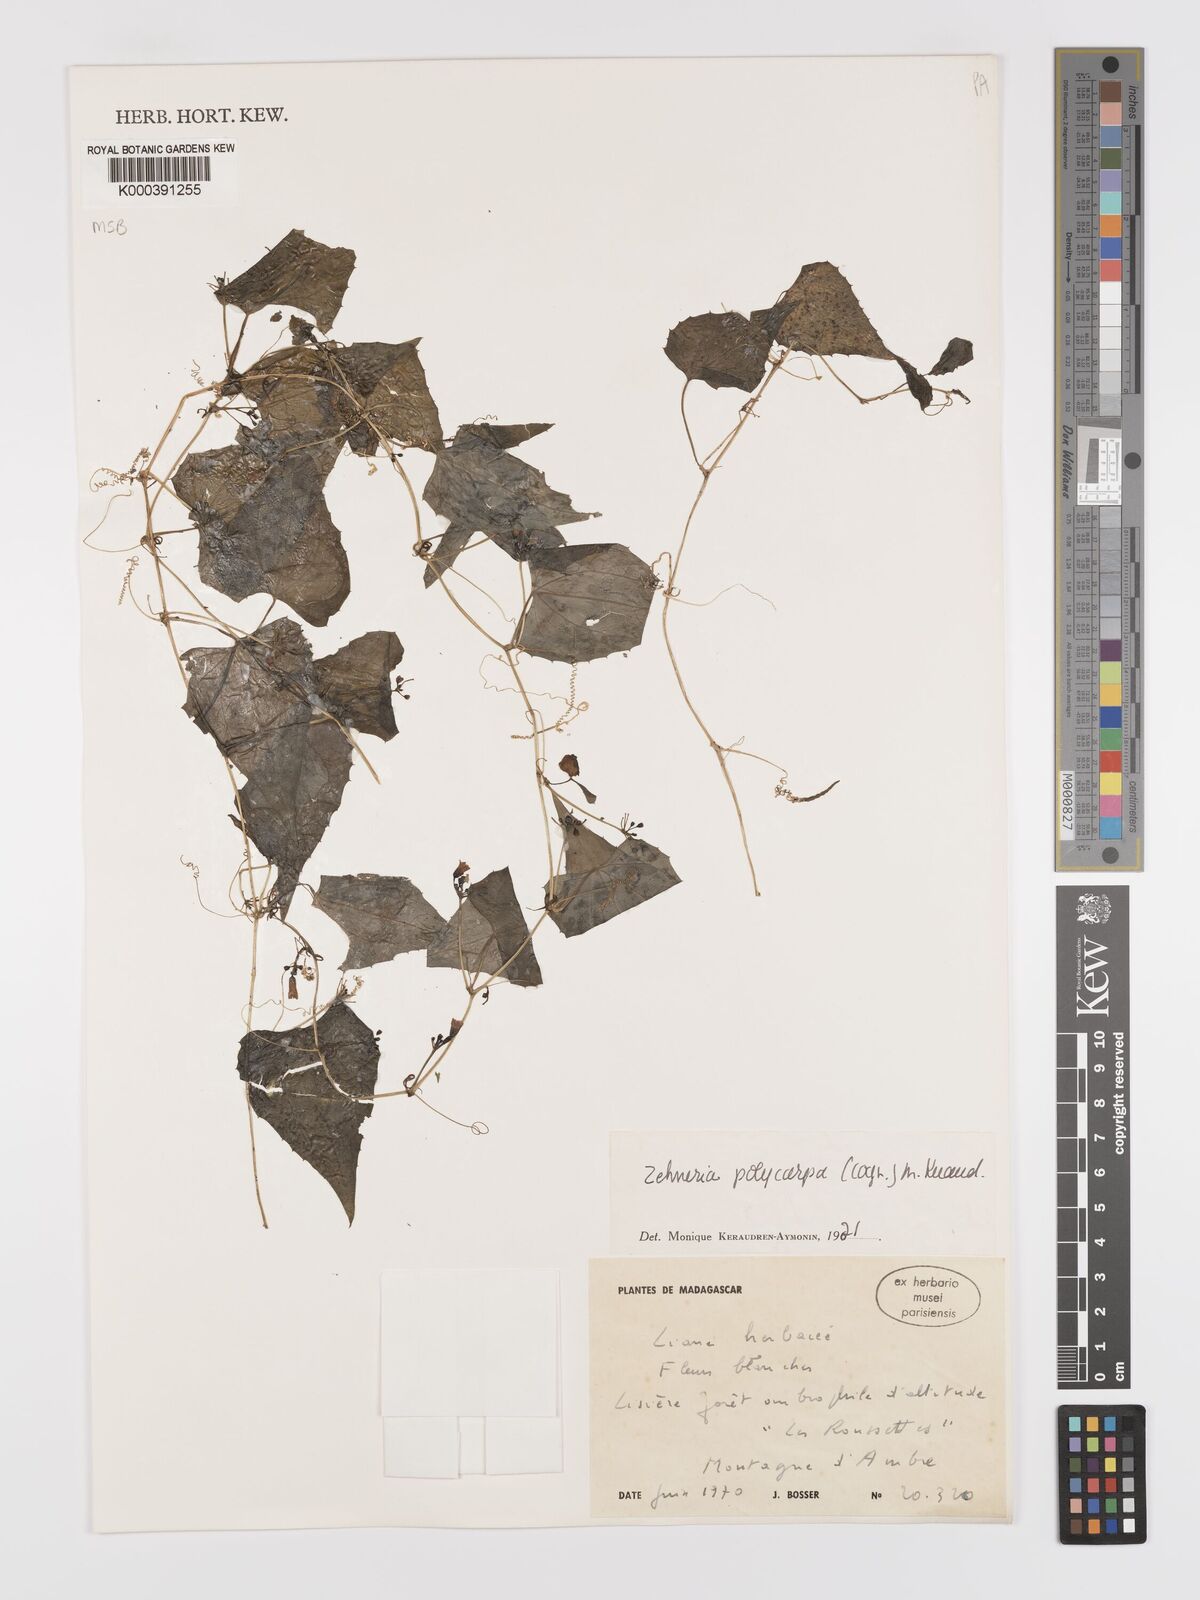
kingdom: Plantae
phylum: Tracheophyta
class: Magnoliopsida
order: Cucurbitales
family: Cucurbitaceae
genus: Zehneria
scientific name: Zehneria polycarpa
